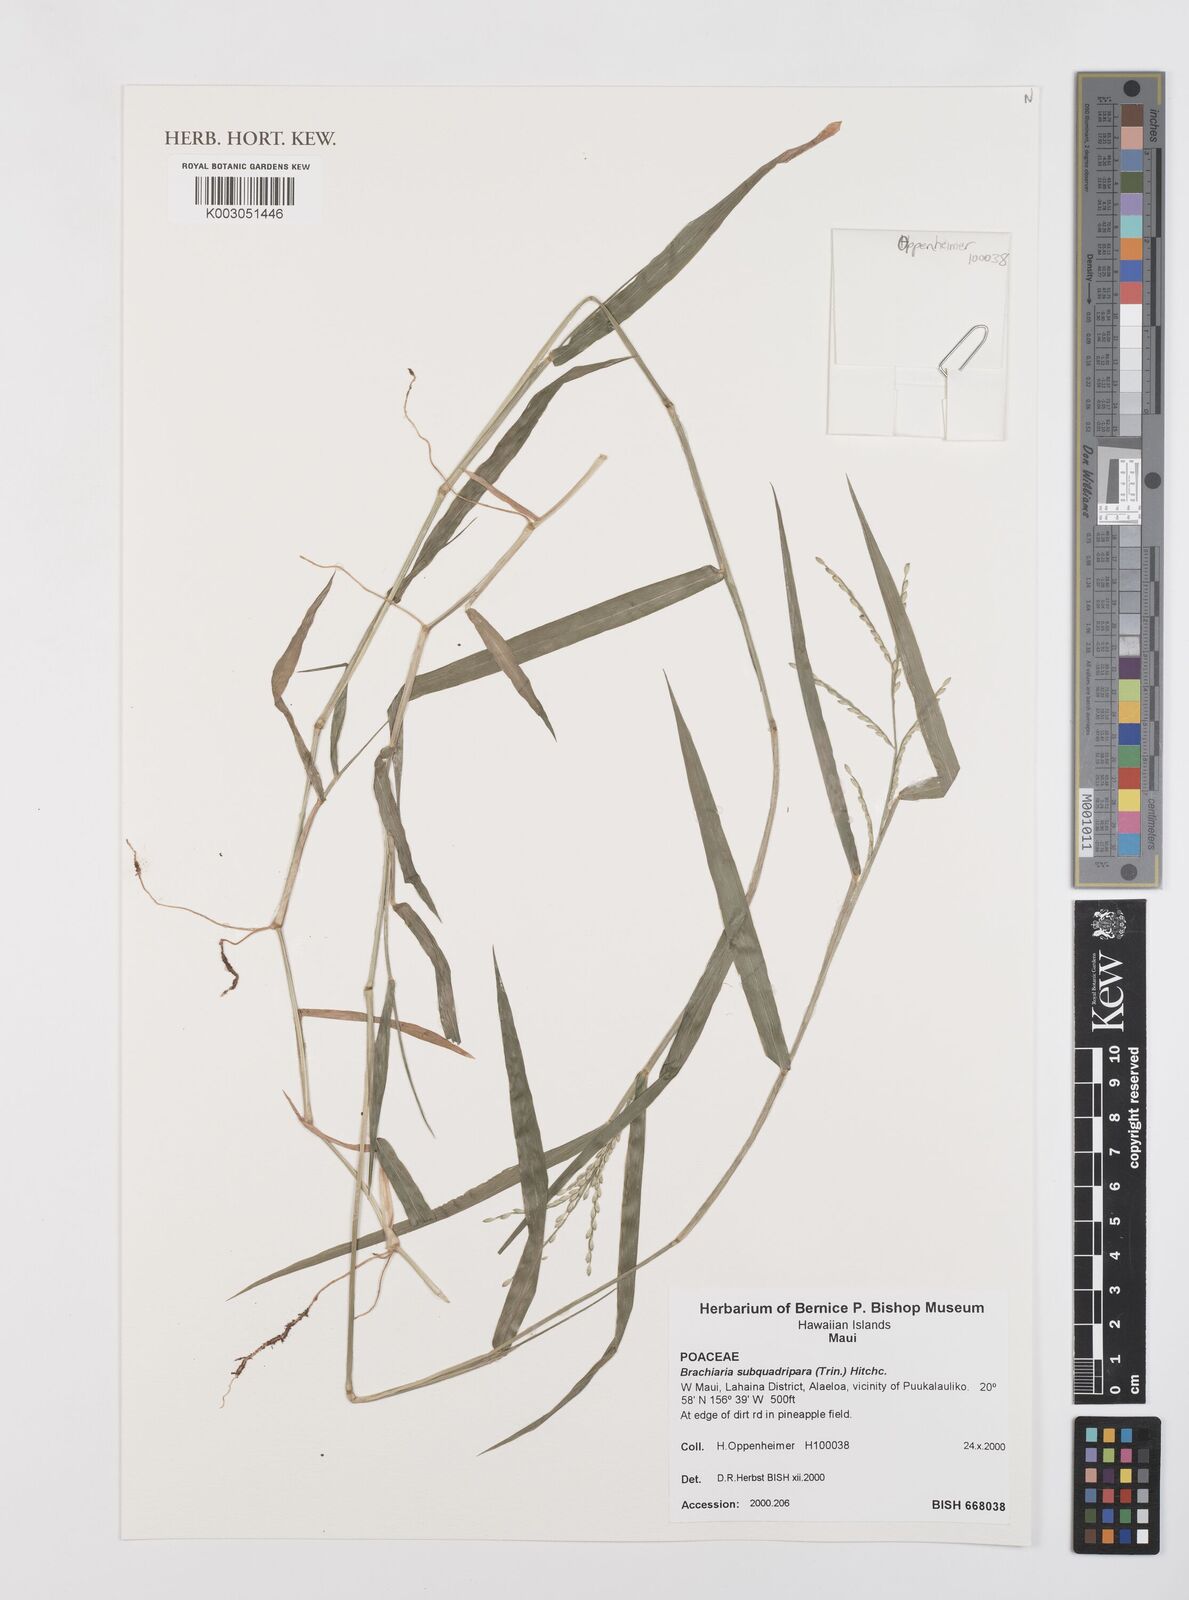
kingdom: Plantae
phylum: Tracheophyta
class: Liliopsida
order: Poales
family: Poaceae
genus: Urochloa
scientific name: Urochloa subquadripara
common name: Armgrass millet
